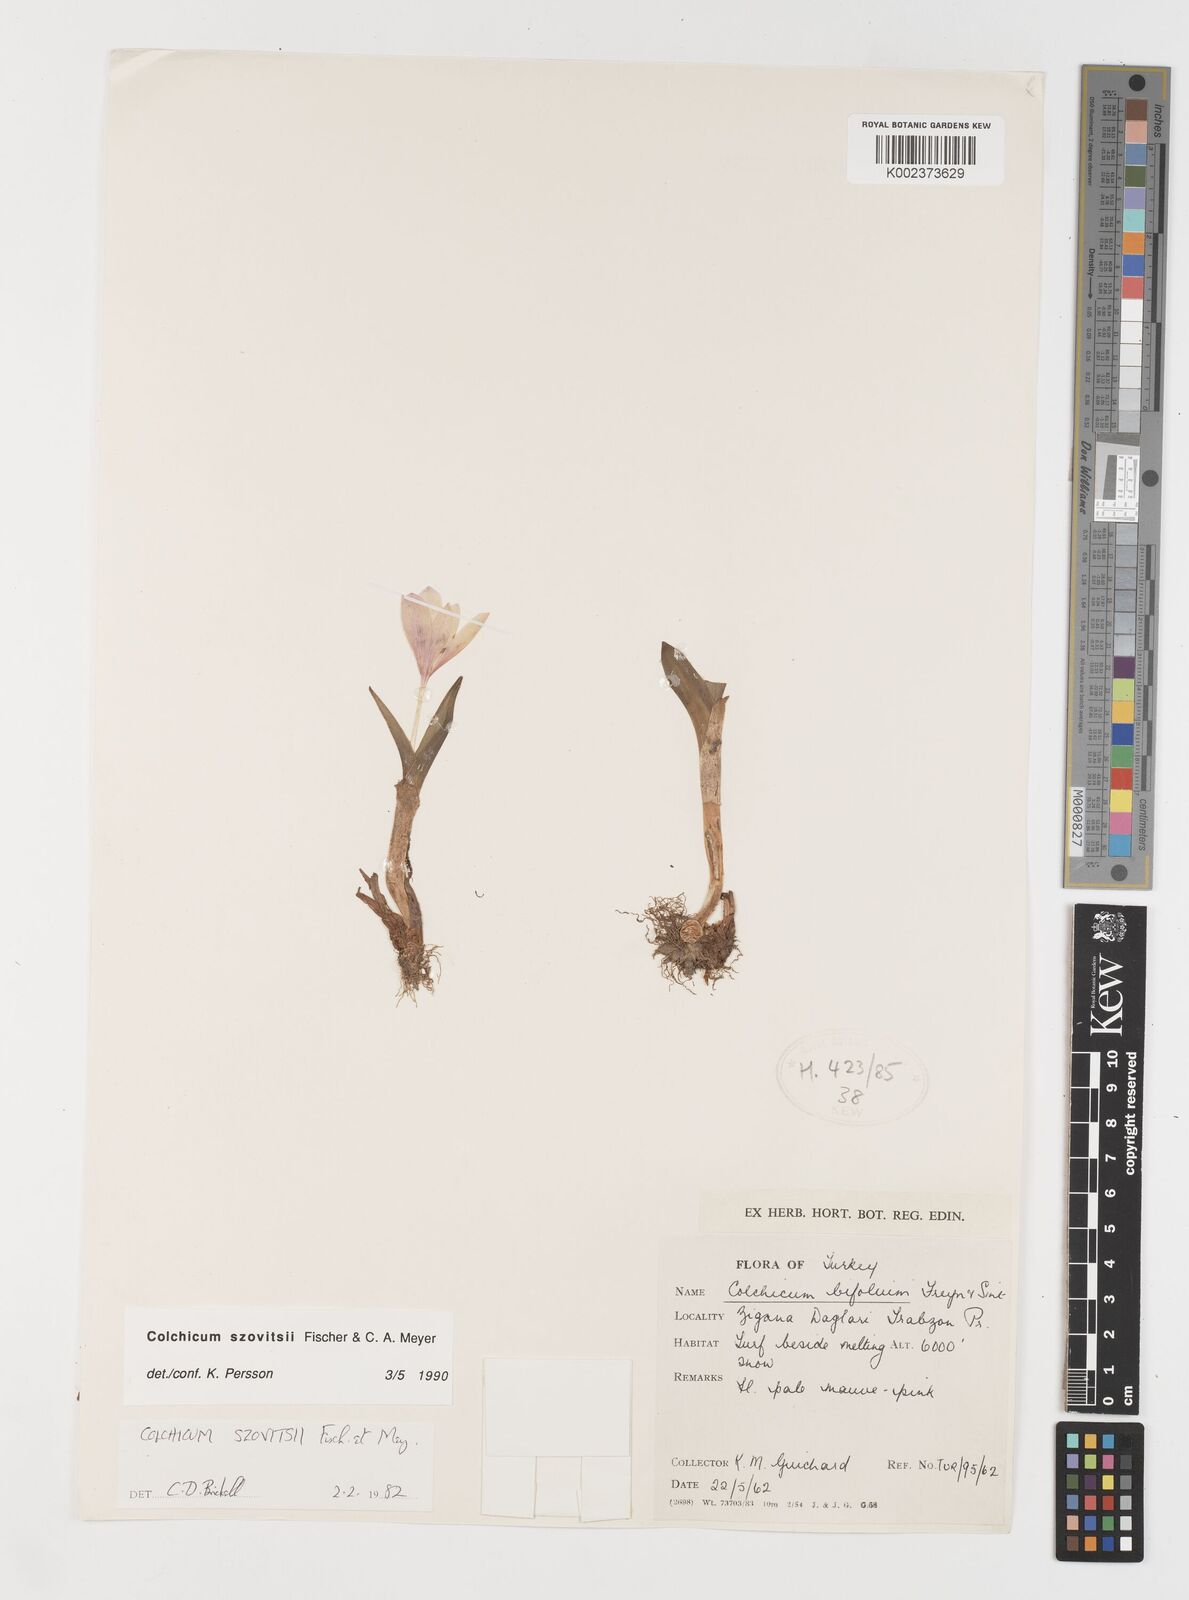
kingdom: Plantae
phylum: Tracheophyta
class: Liliopsida
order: Liliales
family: Colchicaceae
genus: Colchicum
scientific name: Colchicum szovitsii
